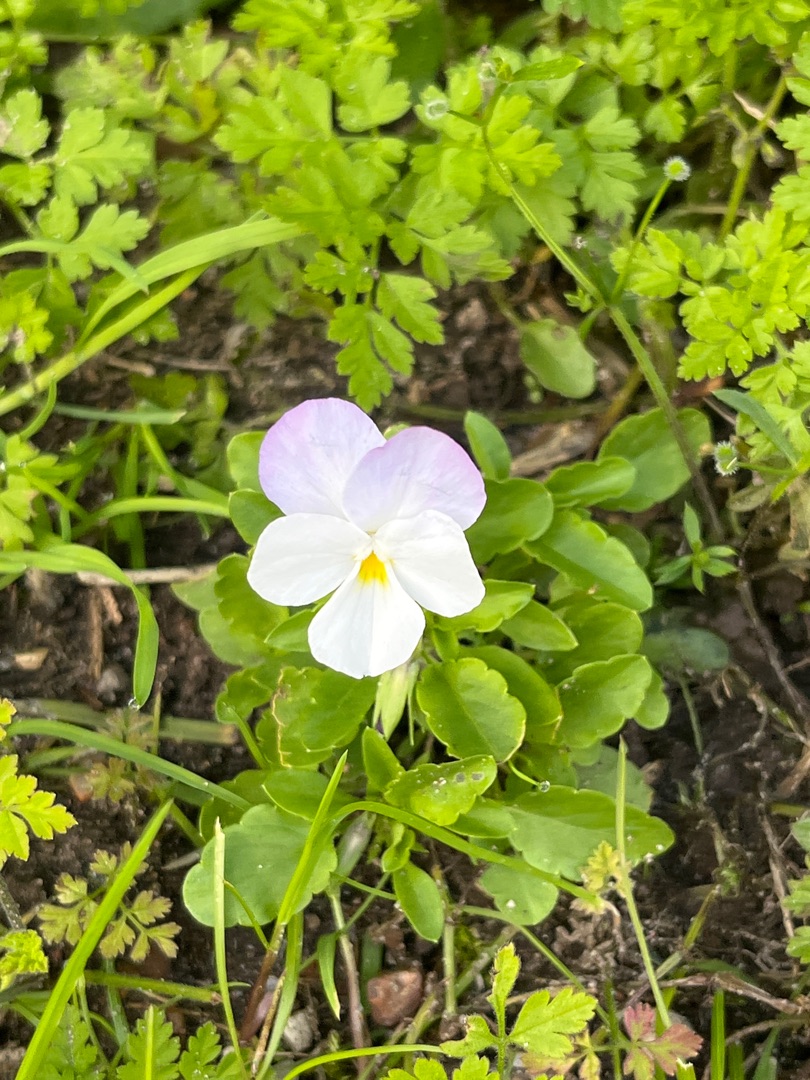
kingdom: Plantae
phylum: Tracheophyta
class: Magnoliopsida
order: Malpighiales
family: Violaceae
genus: Viola
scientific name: Viola wittrockiana
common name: Have-stedmoderblomst
